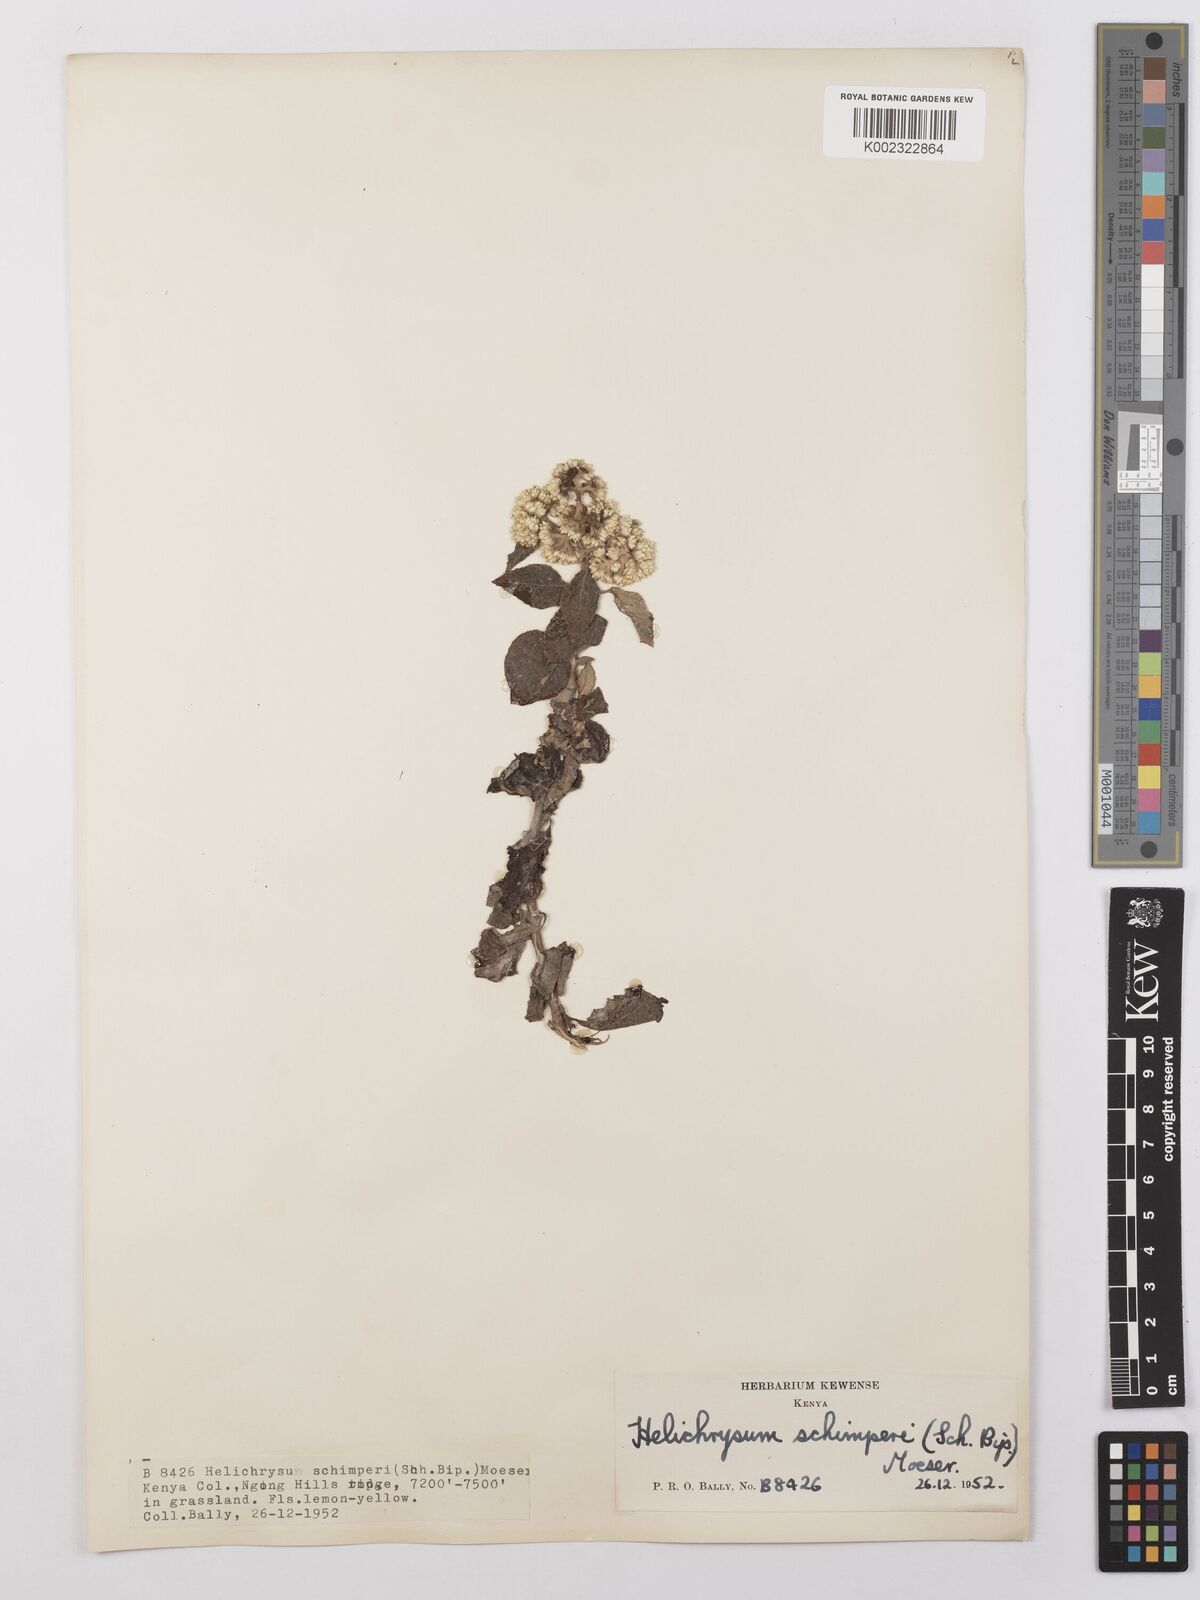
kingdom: Plantae
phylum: Tracheophyta
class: Magnoliopsida
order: Asterales
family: Asteraceae
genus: Helichrysum
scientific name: Helichrysum schimperi
